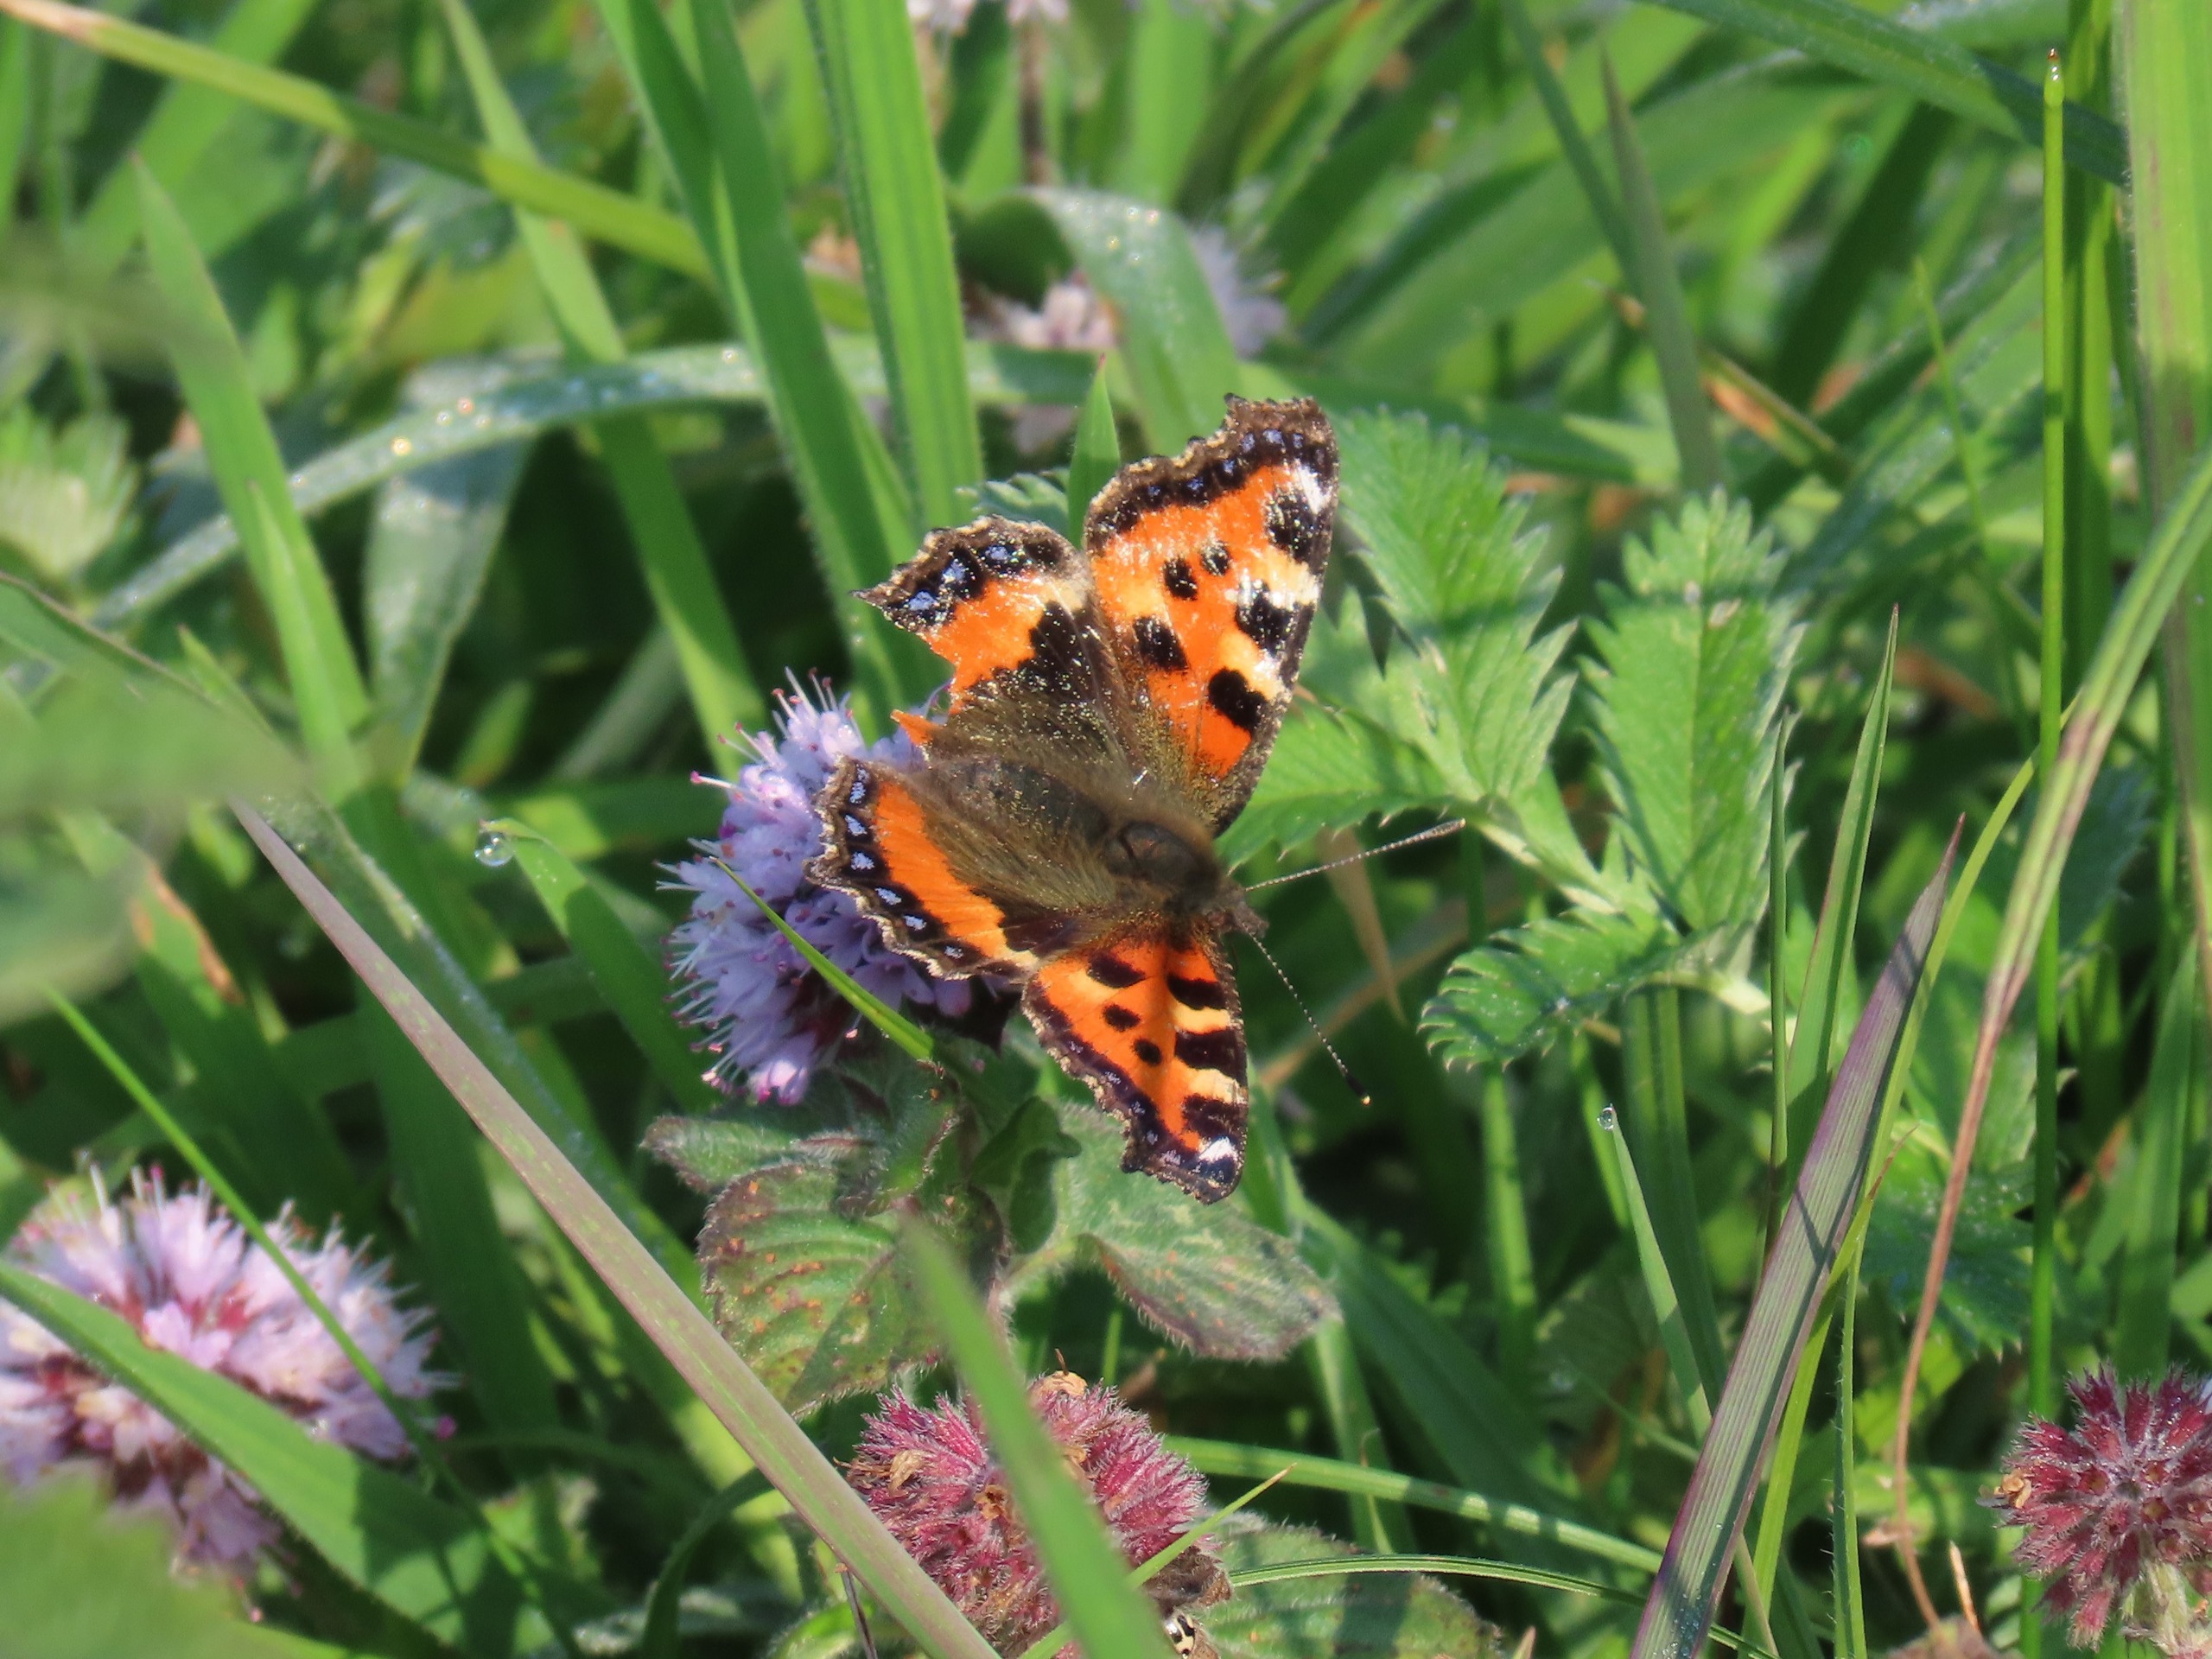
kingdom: Animalia
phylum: Arthropoda
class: Insecta
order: Lepidoptera
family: Nymphalidae
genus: Aglais
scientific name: Aglais urticae
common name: Nældens takvinge
